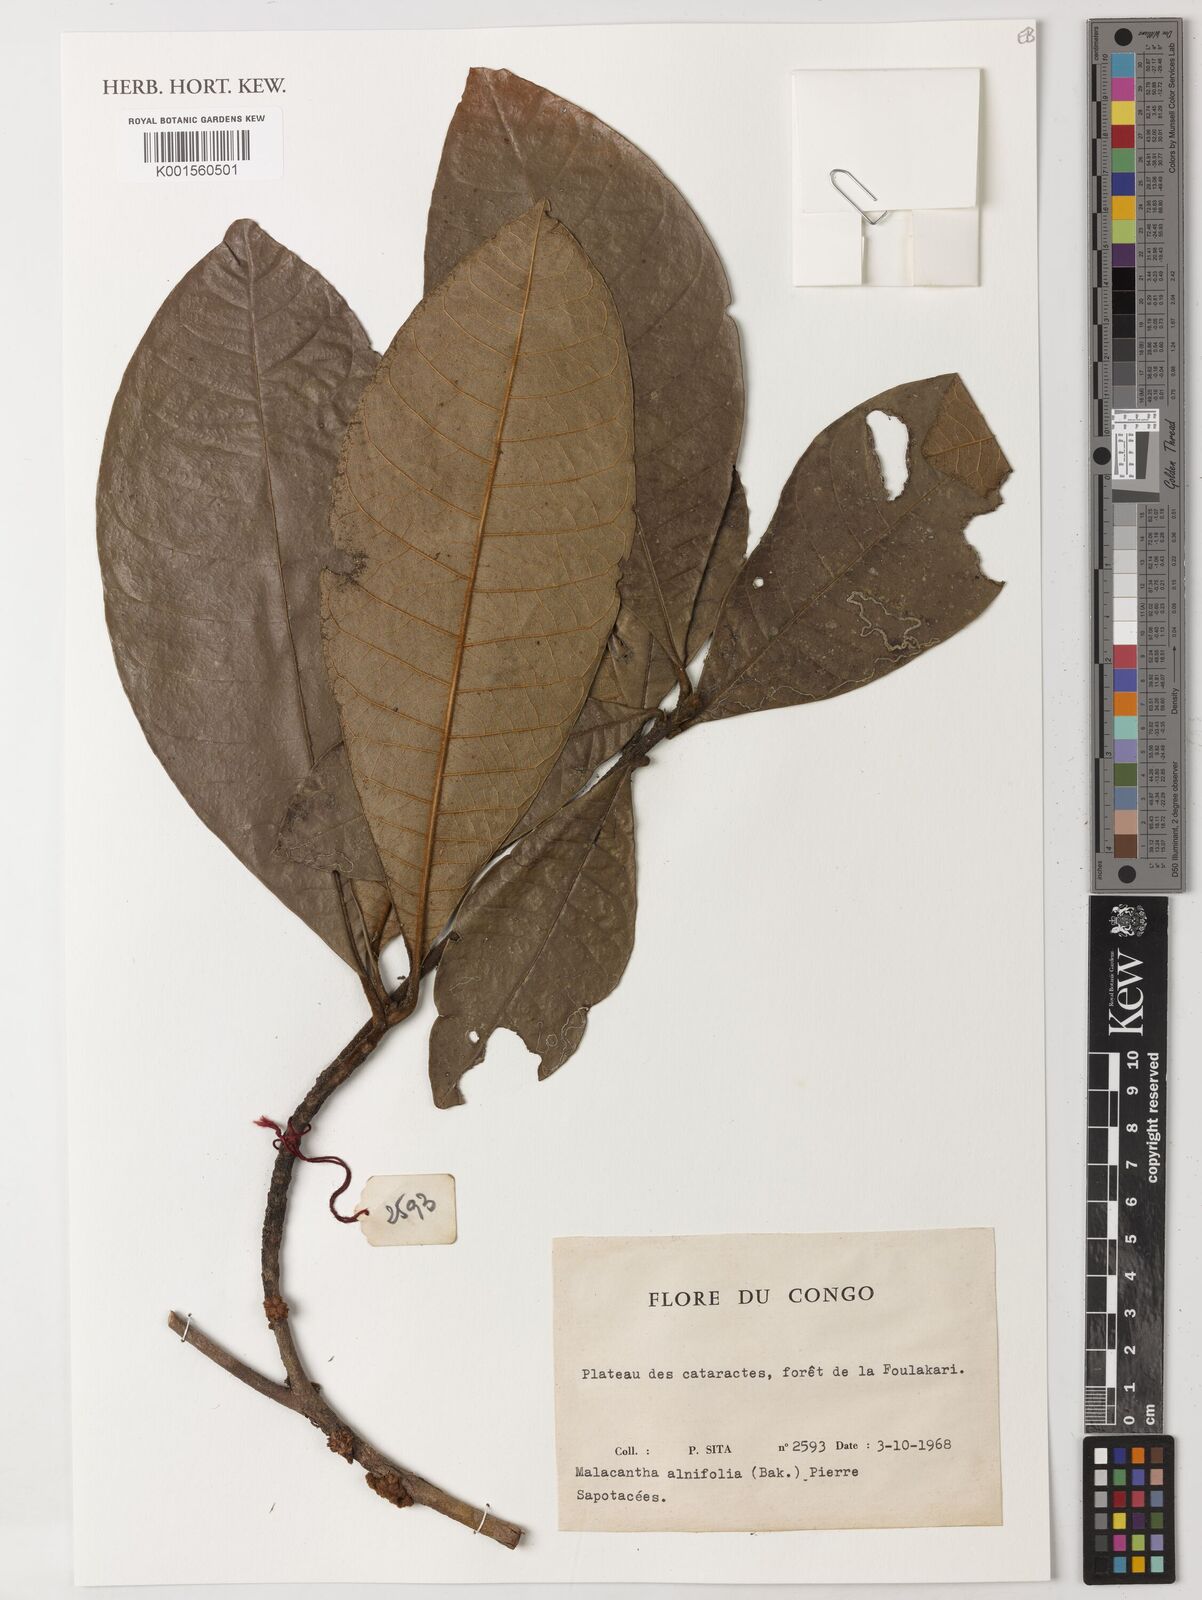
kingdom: Plantae
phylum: Tracheophyta
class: Magnoliopsida
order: Ericales
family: Sapotaceae
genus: Malacantha
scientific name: Malacantha alnifolia
